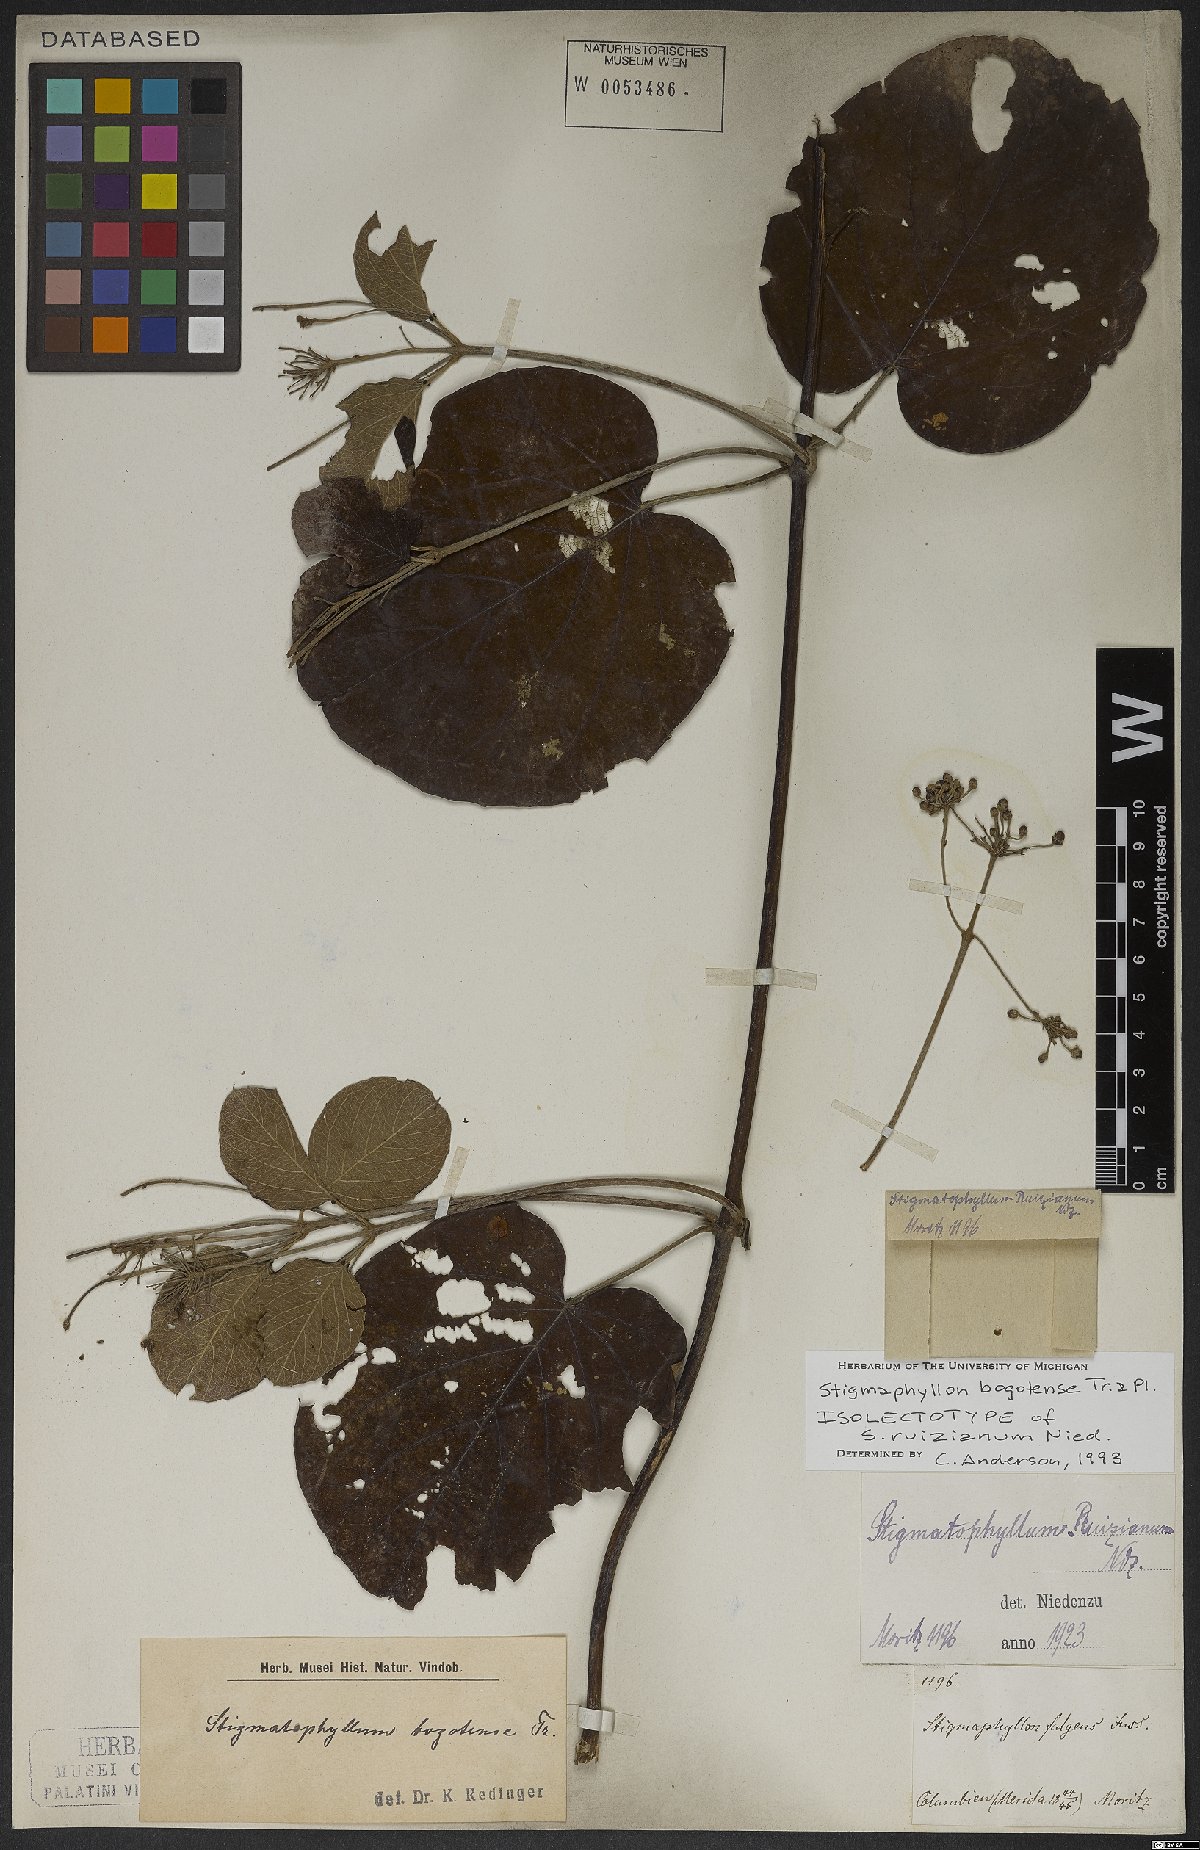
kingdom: Plantae
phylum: Tracheophyta
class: Magnoliopsida
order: Malpighiales
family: Malpighiaceae
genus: Stigmaphyllon
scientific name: Stigmaphyllon bogotense
